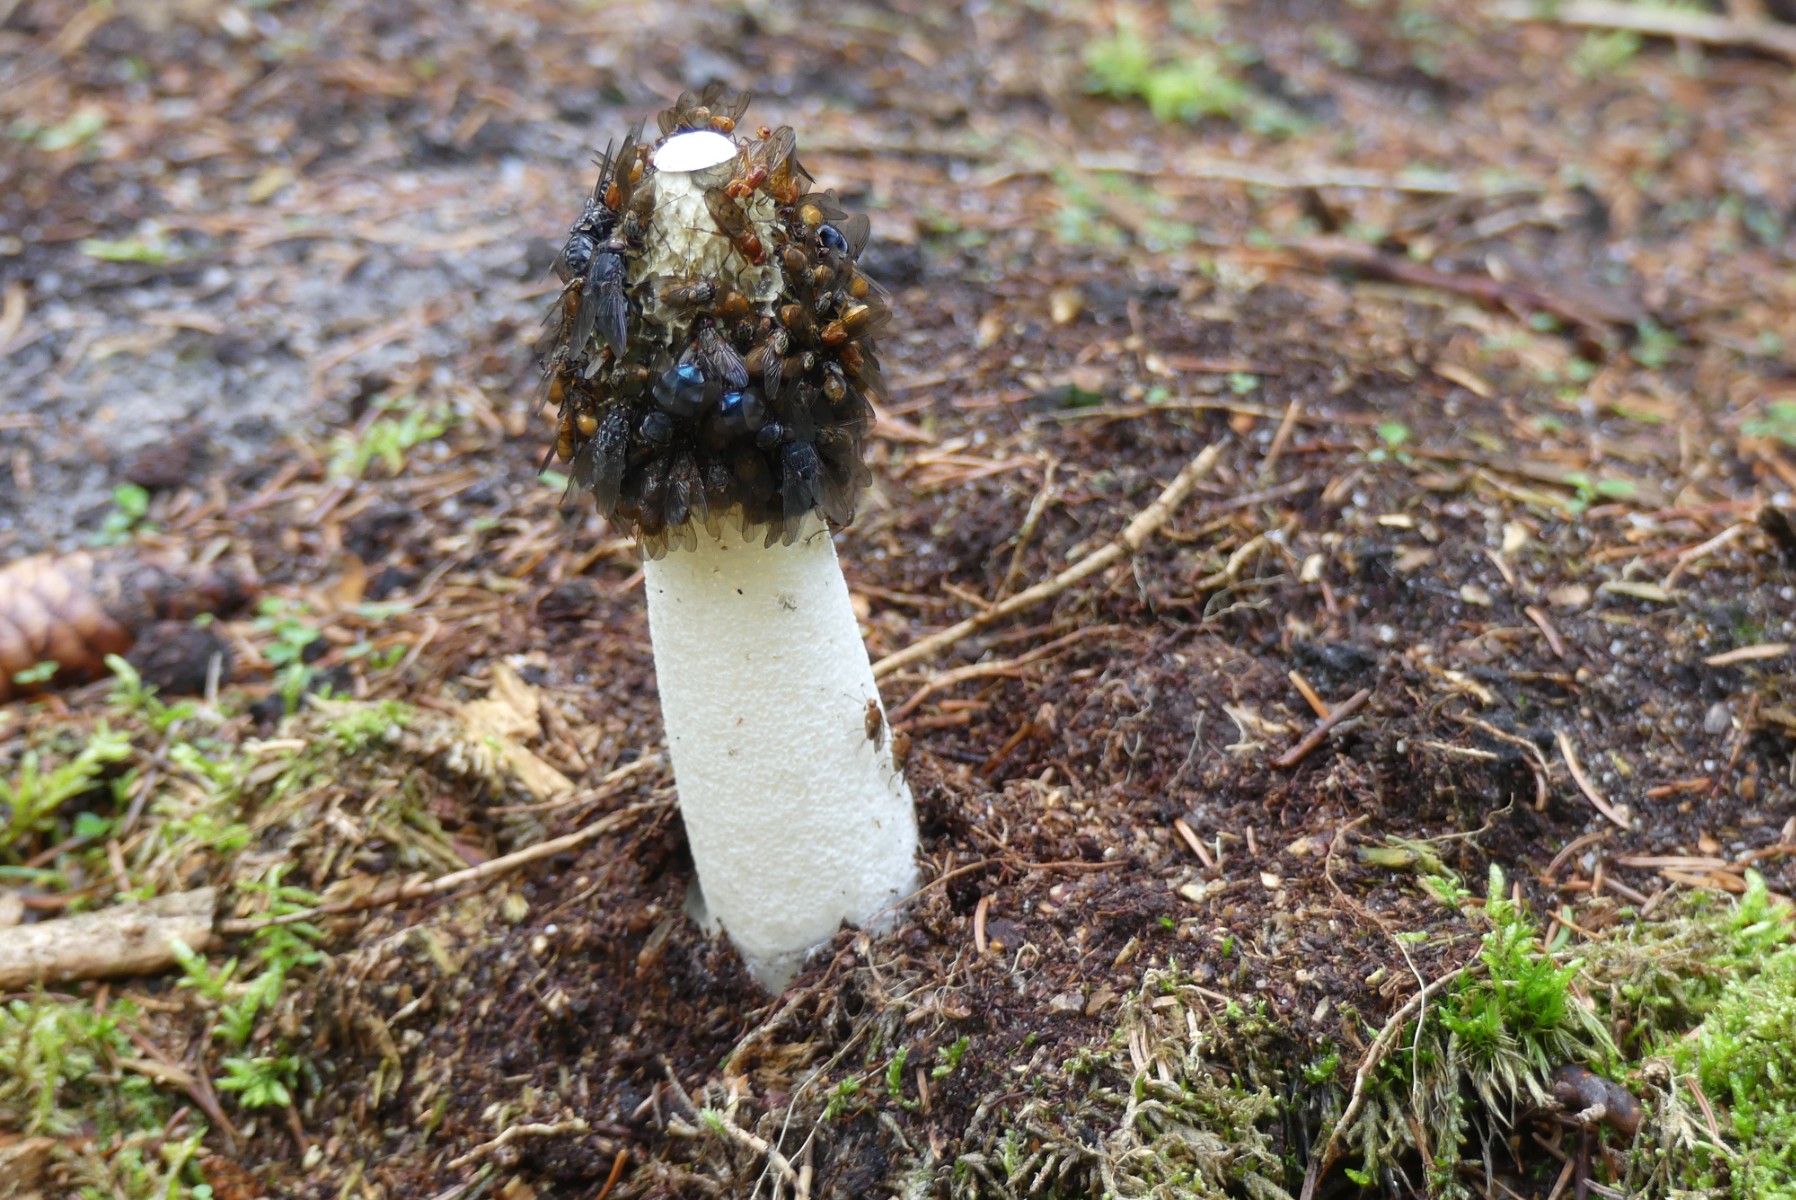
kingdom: Fungi
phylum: Basidiomycota
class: Agaricomycetes
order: Phallales
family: Phallaceae
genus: Phallus
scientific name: Phallus impudicus
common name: almindelig stinksvamp
